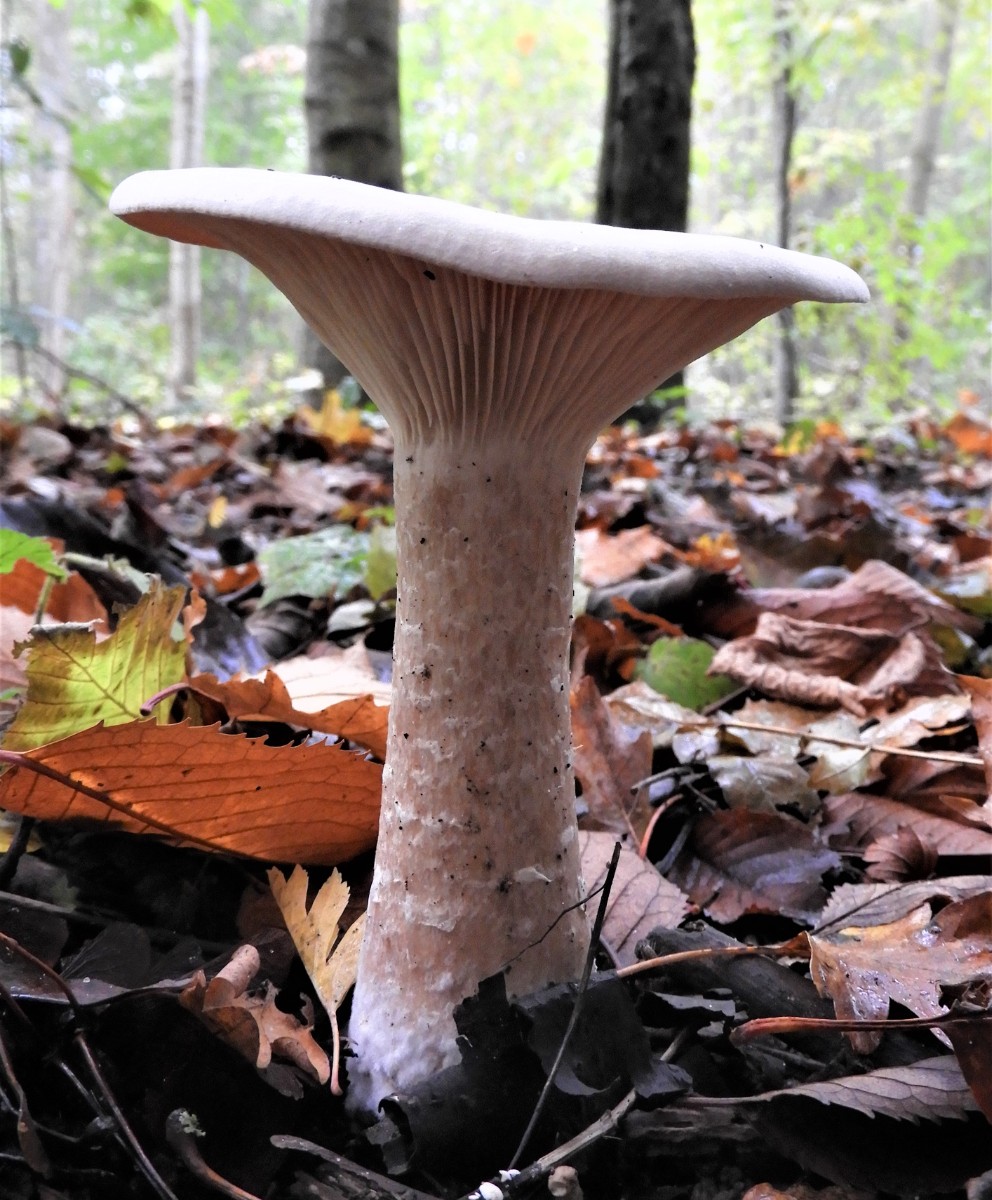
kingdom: Fungi
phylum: Basidiomycota
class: Agaricomycetes
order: Agaricales
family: Tricholomataceae
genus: Infundibulicybe
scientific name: Infundibulicybe geotropa
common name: stor tragthat
